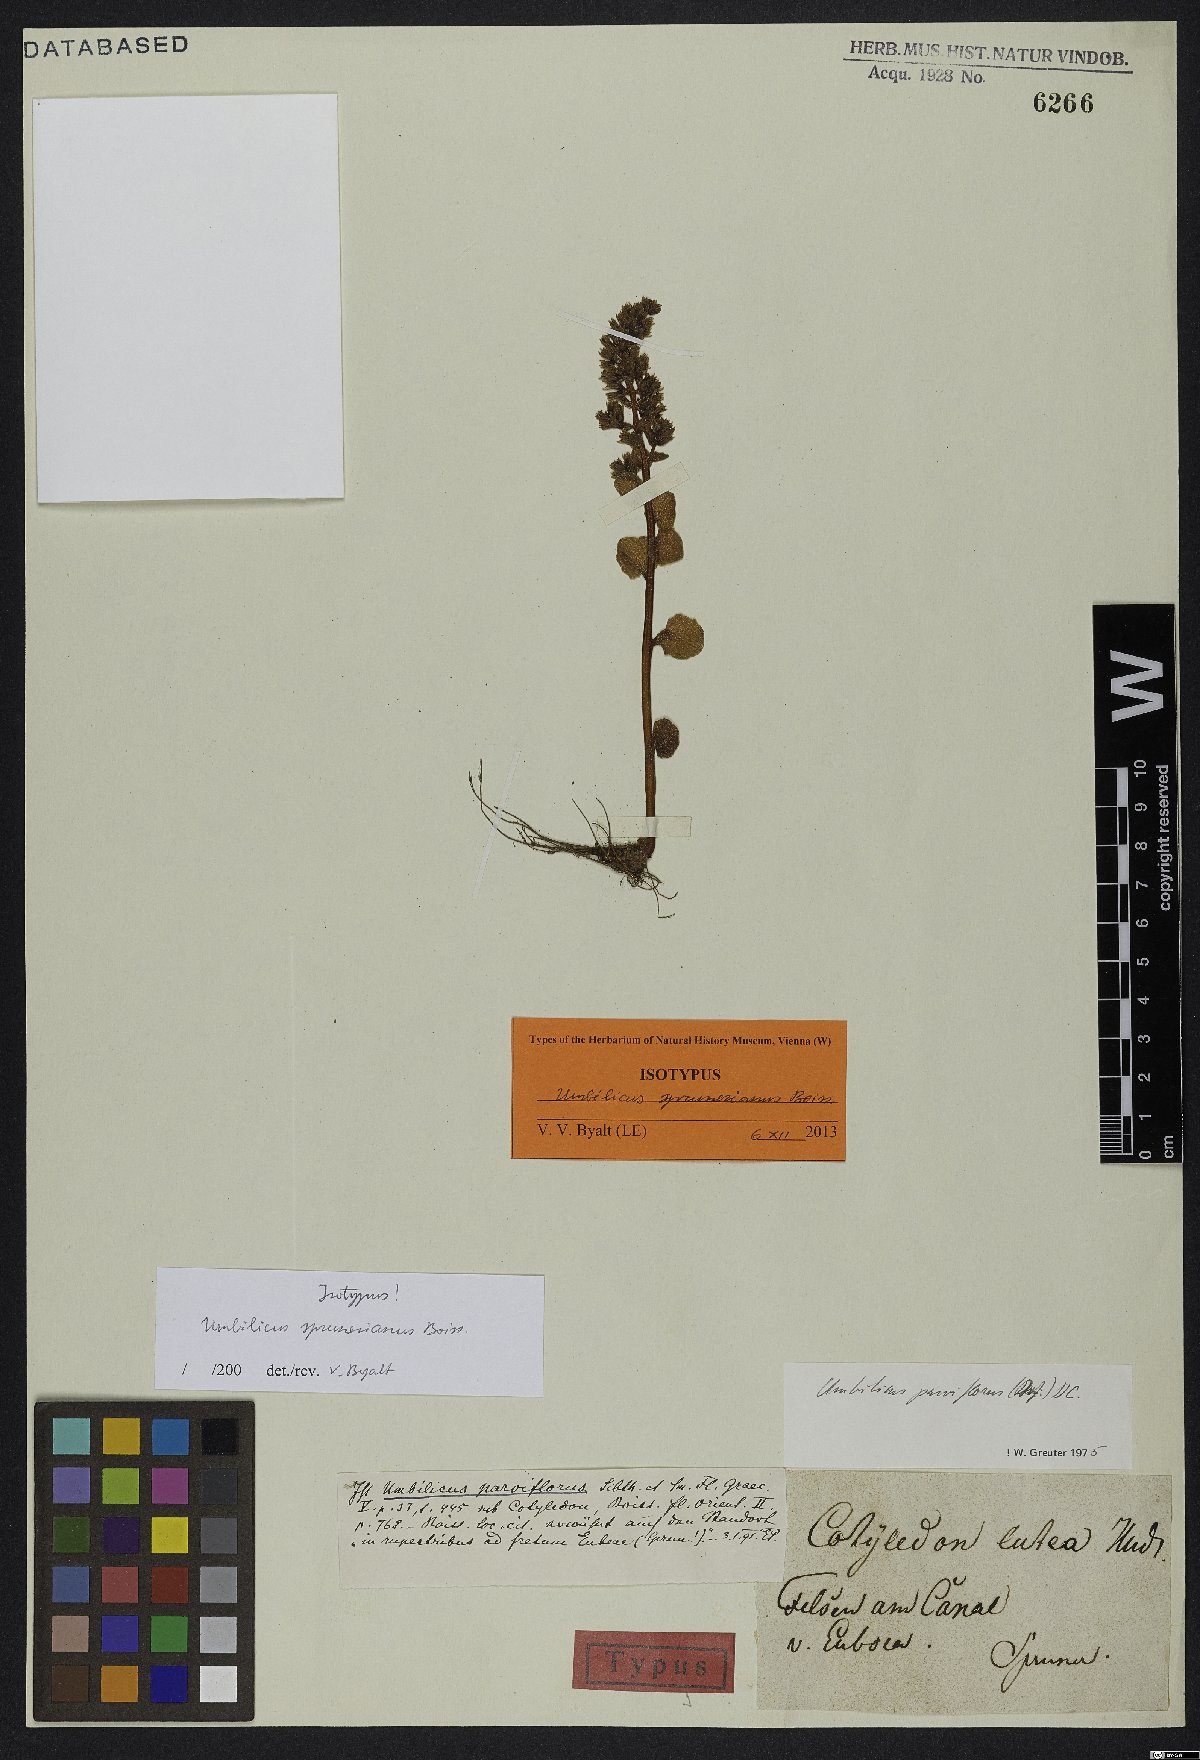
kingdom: Plantae
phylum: Tracheophyta
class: Magnoliopsida
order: Saxifragales
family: Crassulaceae
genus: Umbilicus
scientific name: Umbilicus parviflorus
